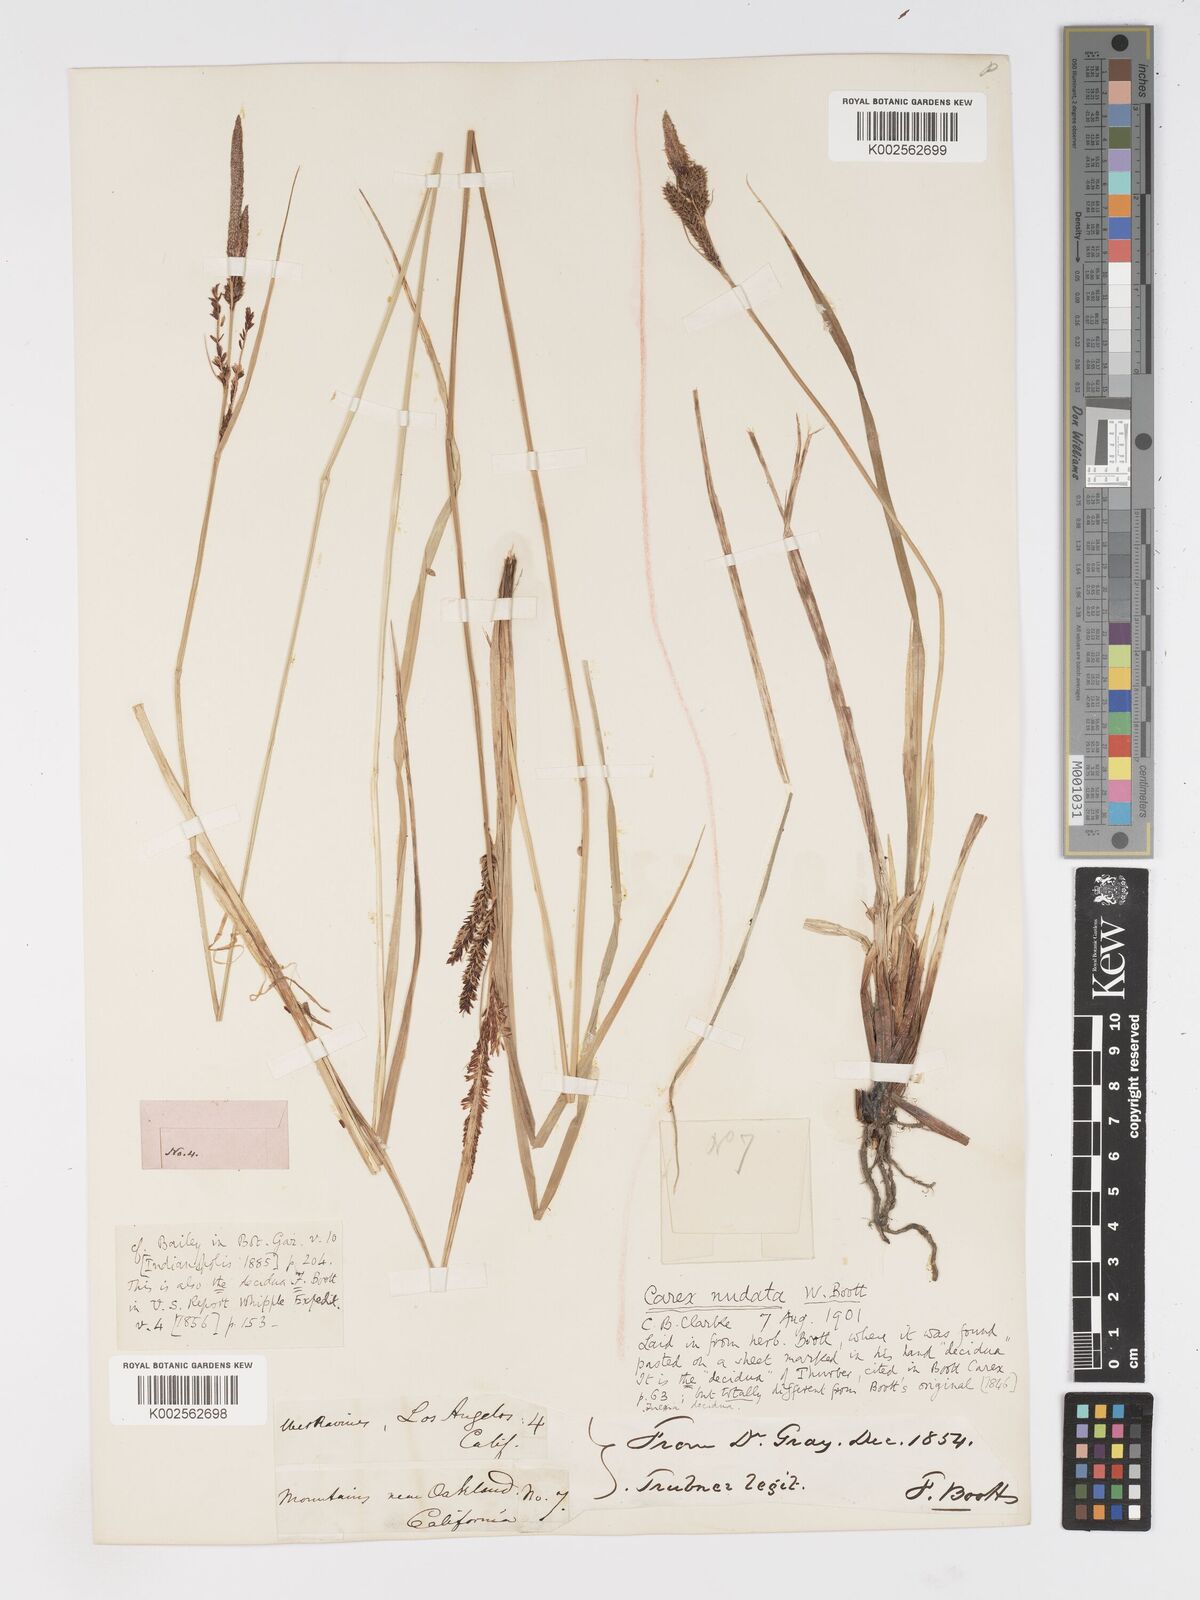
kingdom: Plantae
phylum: Tracheophyta
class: Liliopsida
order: Poales
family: Cyperaceae
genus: Carex
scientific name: Carex nudata
